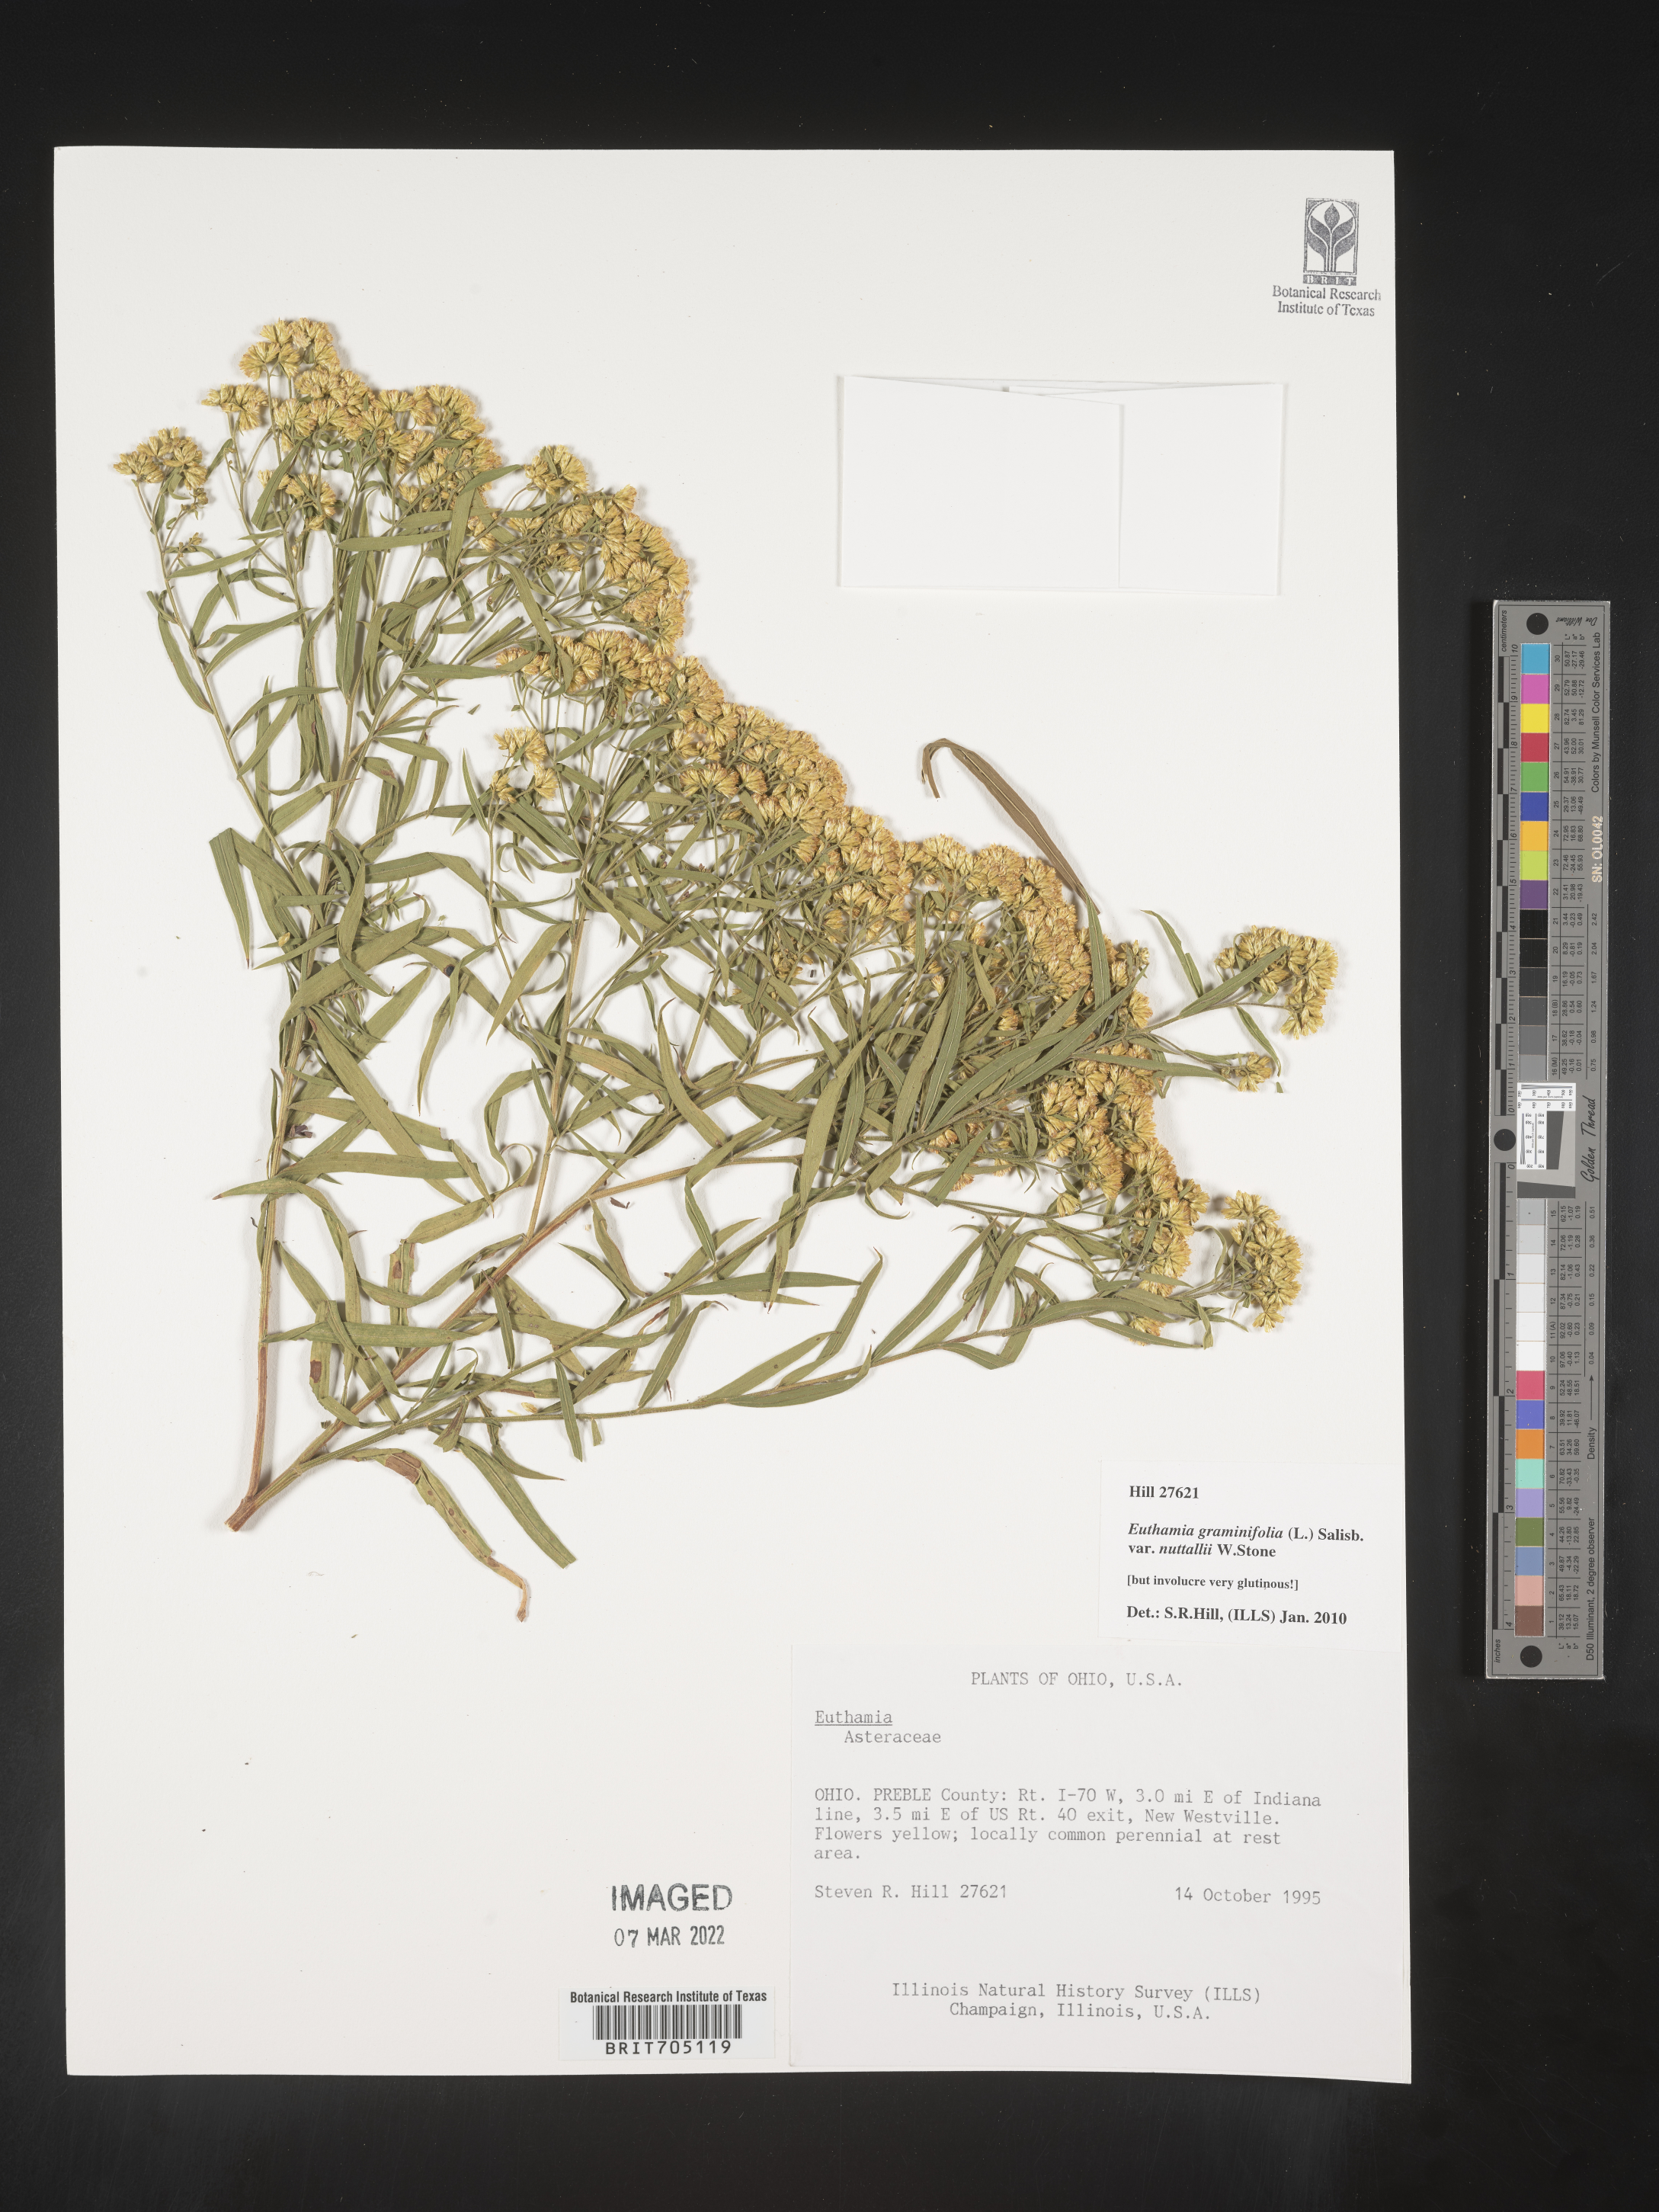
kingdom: Plantae
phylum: Tracheophyta
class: Magnoliopsida
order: Asterales
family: Asteraceae
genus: Euthamia
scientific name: Euthamia graminifolia
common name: Common goldentop
